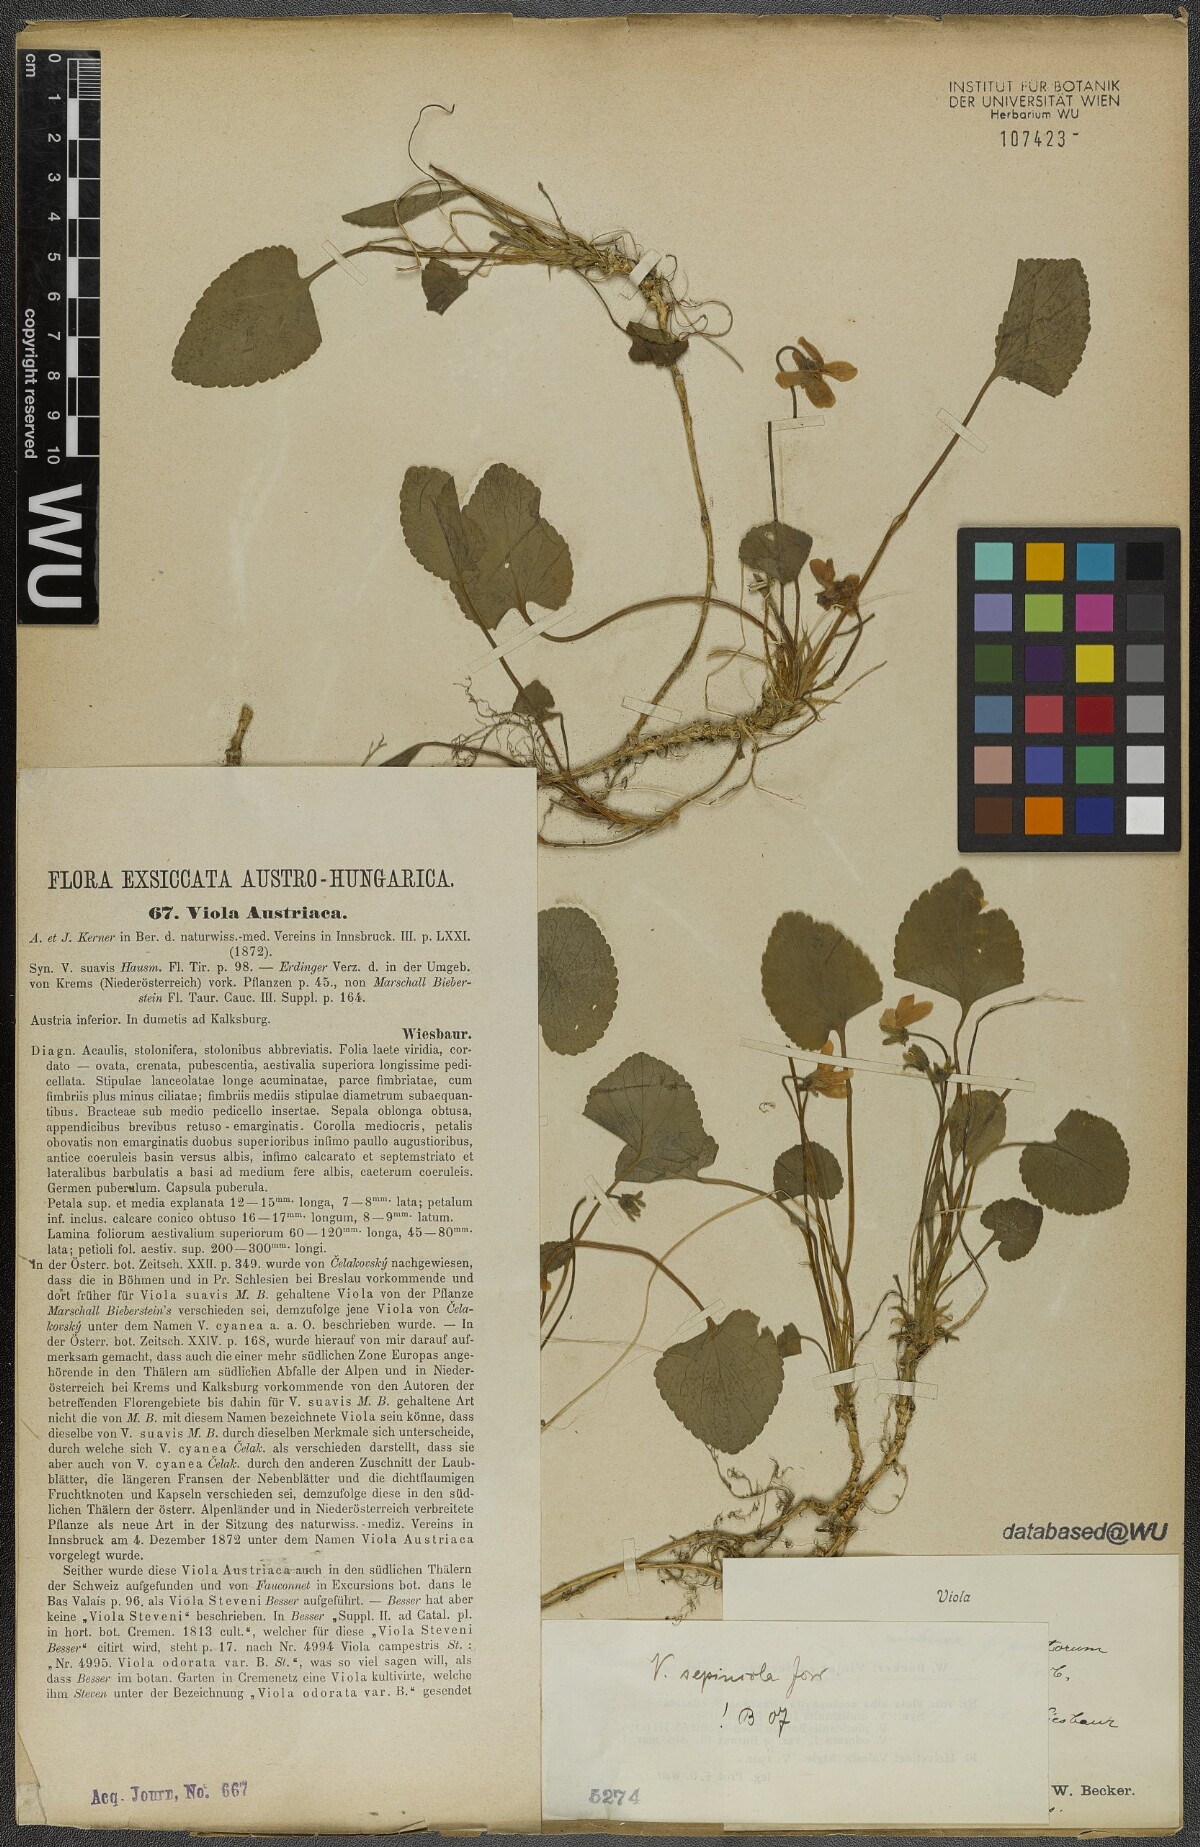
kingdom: Plantae
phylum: Tracheophyta
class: Magnoliopsida
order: Malpighiales
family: Violaceae
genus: Viola
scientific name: Viola suavis
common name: Russian violet
